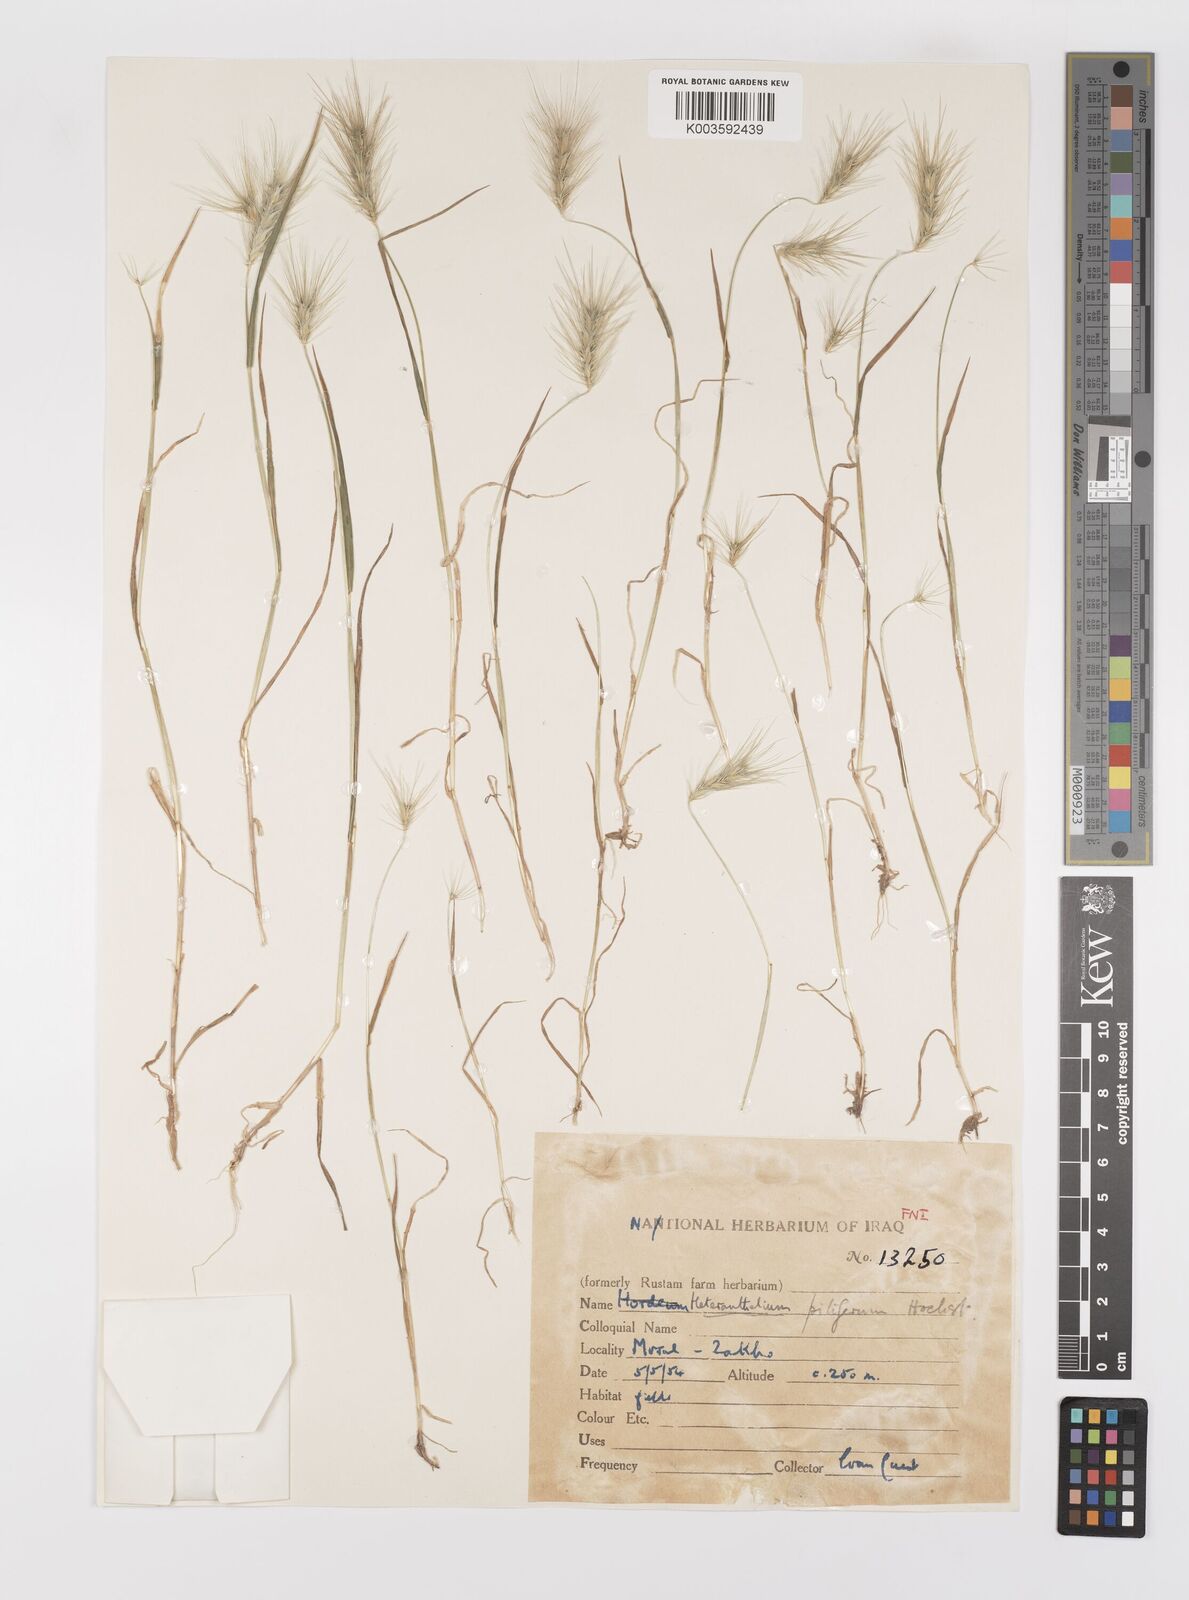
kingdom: Plantae
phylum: Tracheophyta
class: Liliopsida
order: Poales
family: Poaceae
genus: Heteranthelium
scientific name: Heteranthelium piliferum
